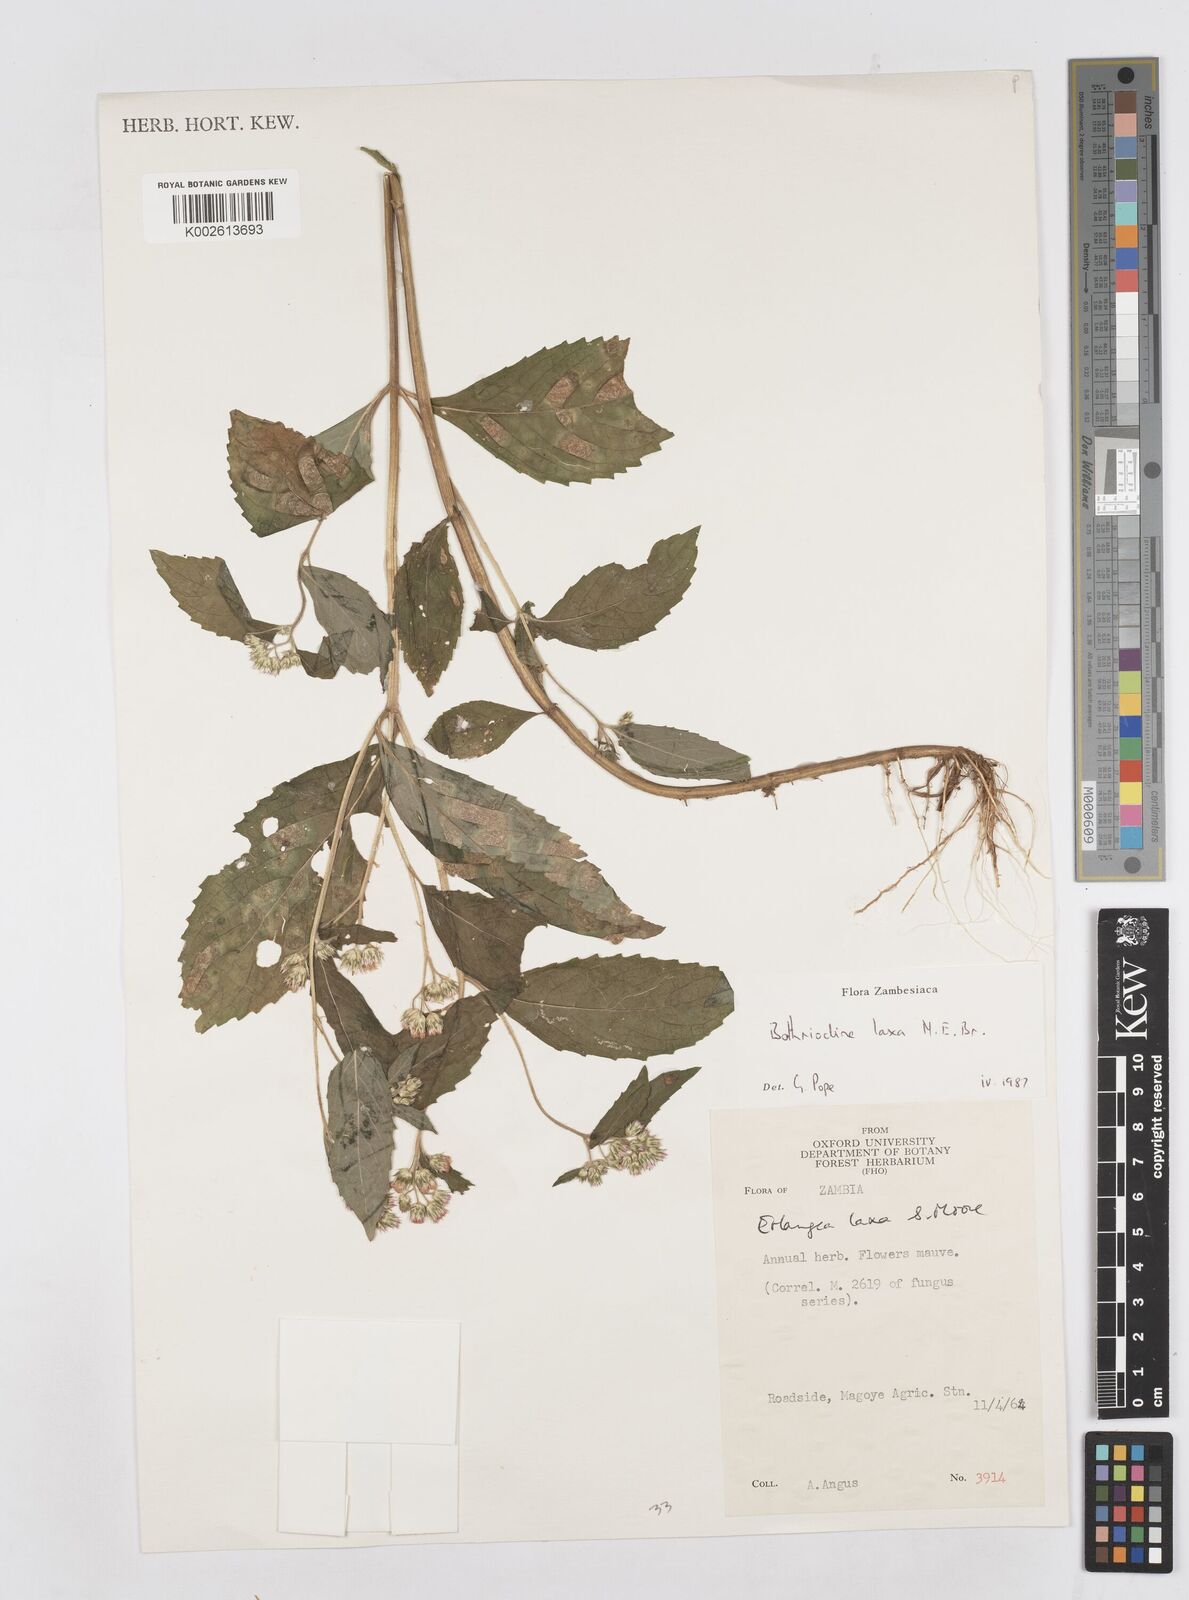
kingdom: Plantae
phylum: Tracheophyta
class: Magnoliopsida
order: Asterales
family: Asteraceae
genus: Bothriocline
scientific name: Bothriocline laxa
